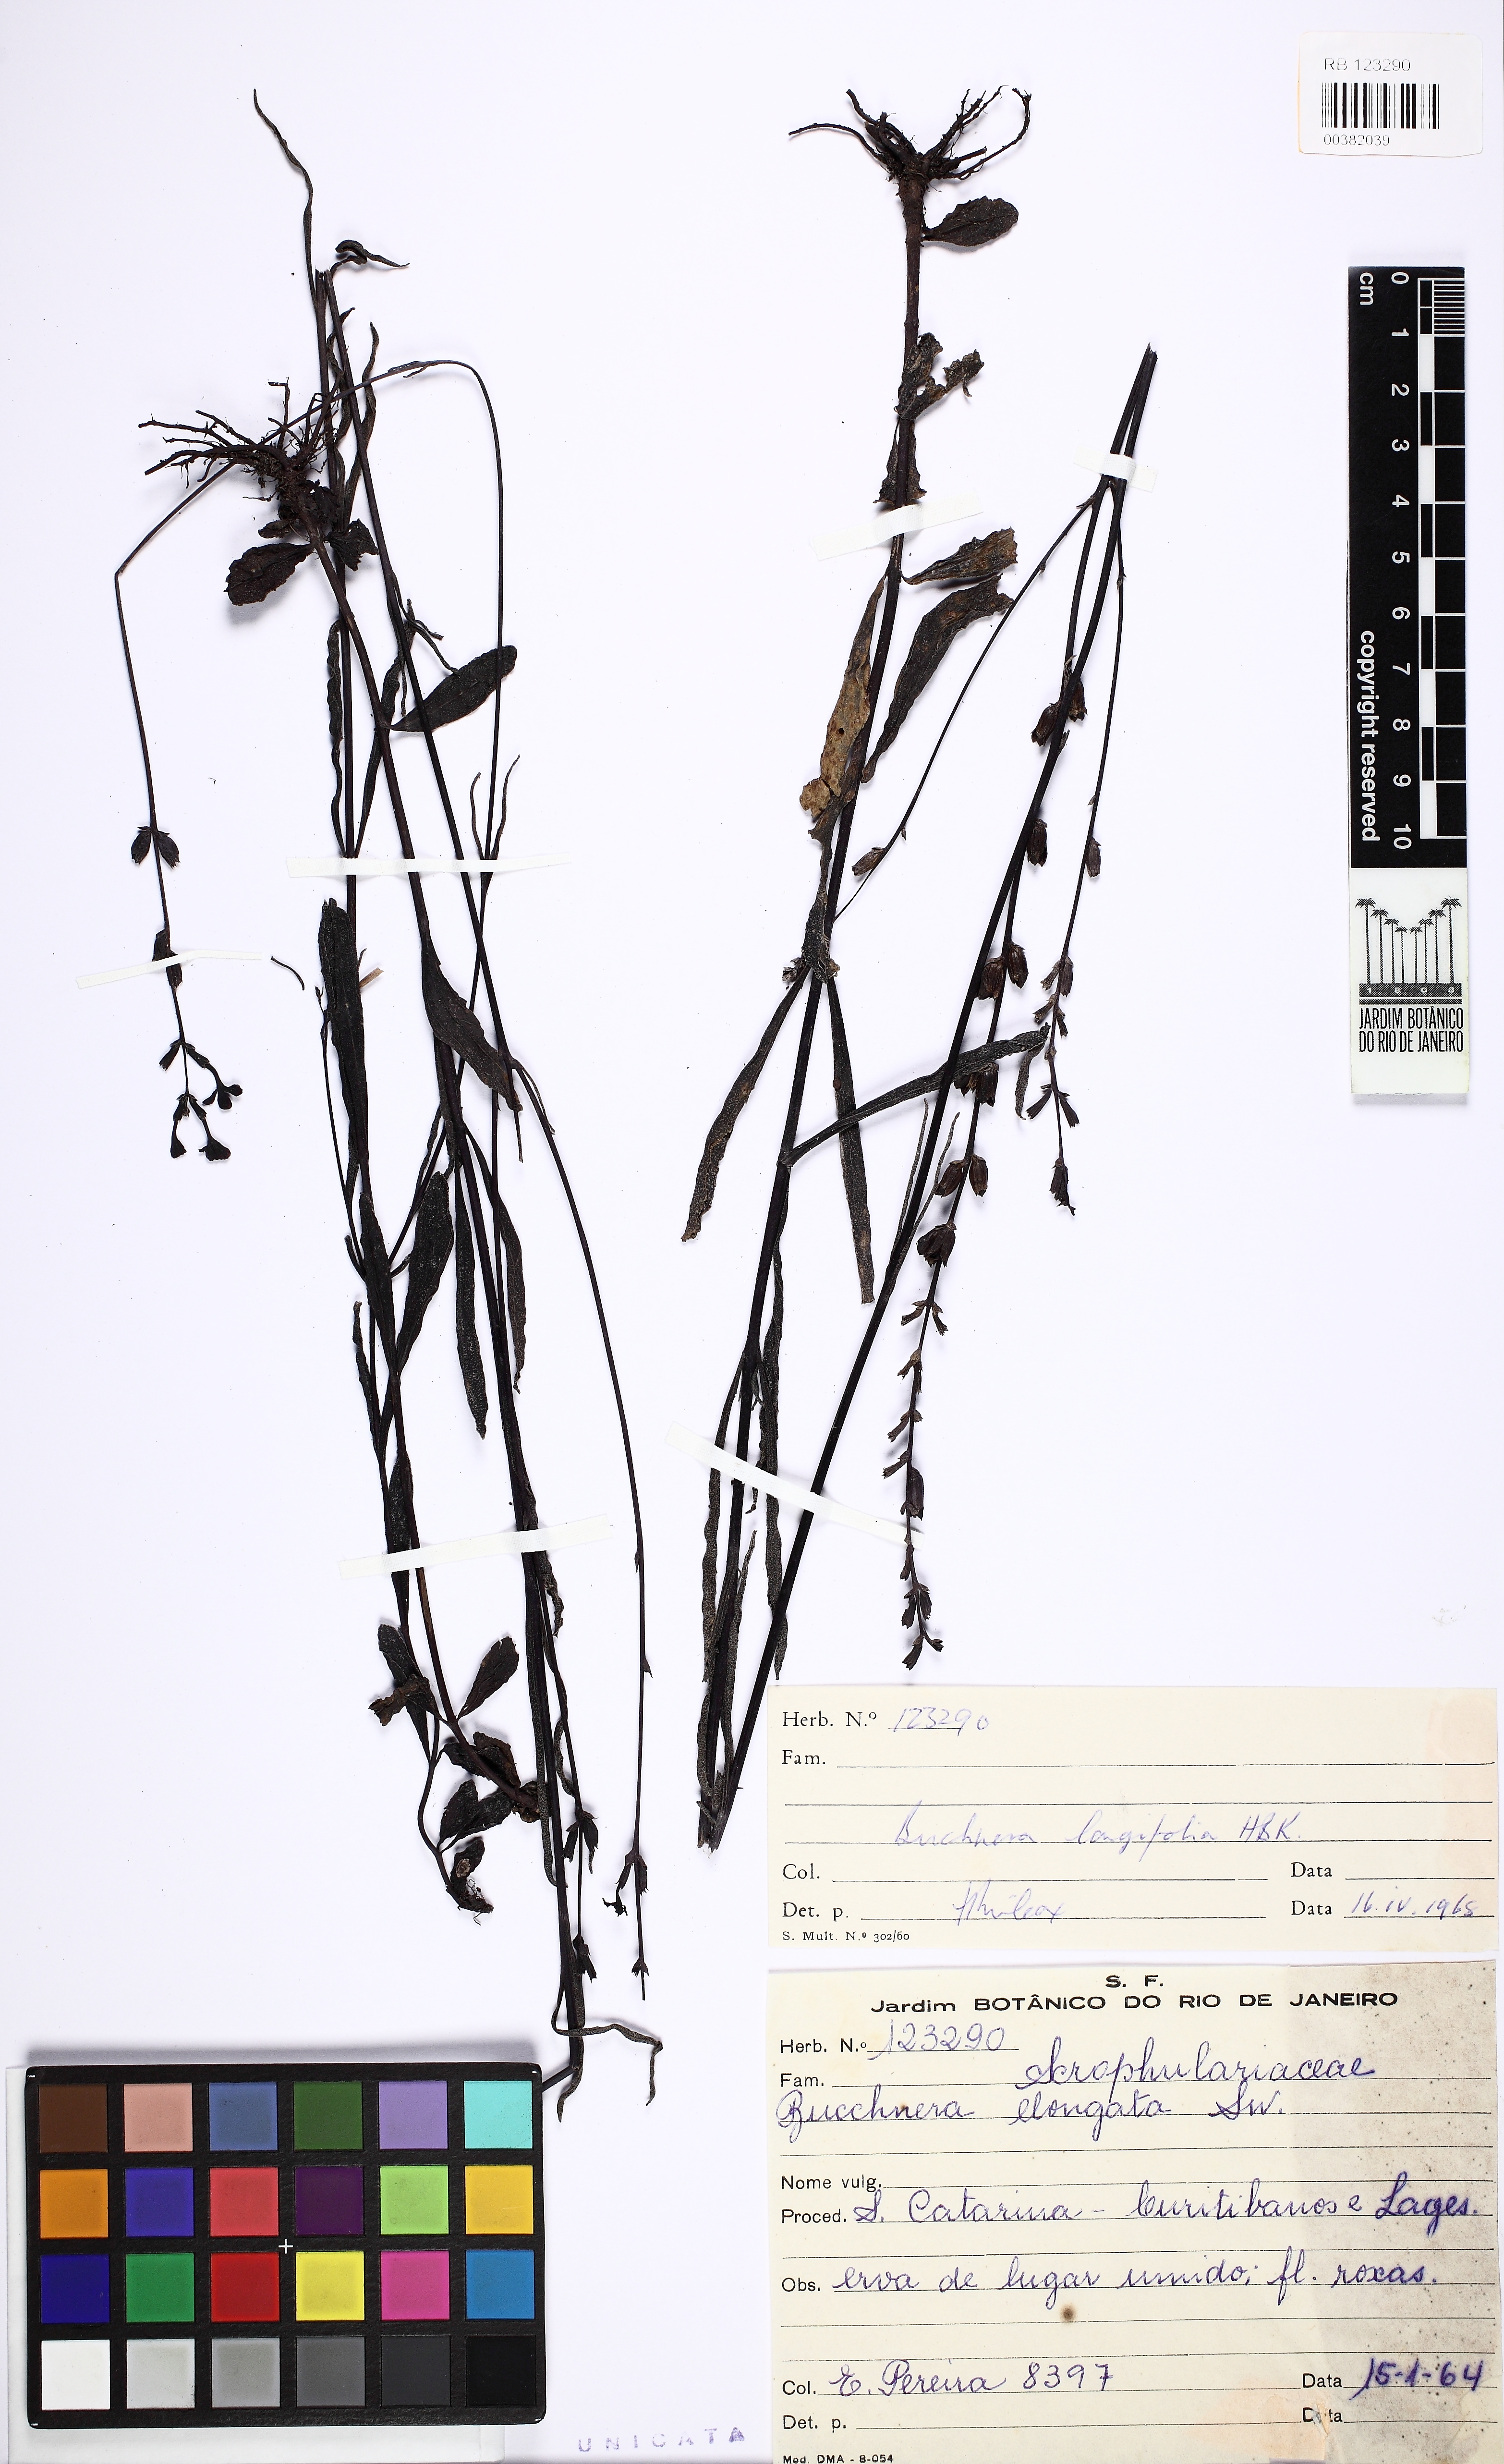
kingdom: Plantae
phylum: Tracheophyta
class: Magnoliopsida
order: Lamiales
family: Orobanchaceae
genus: Buchnera
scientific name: Buchnera longifolia
